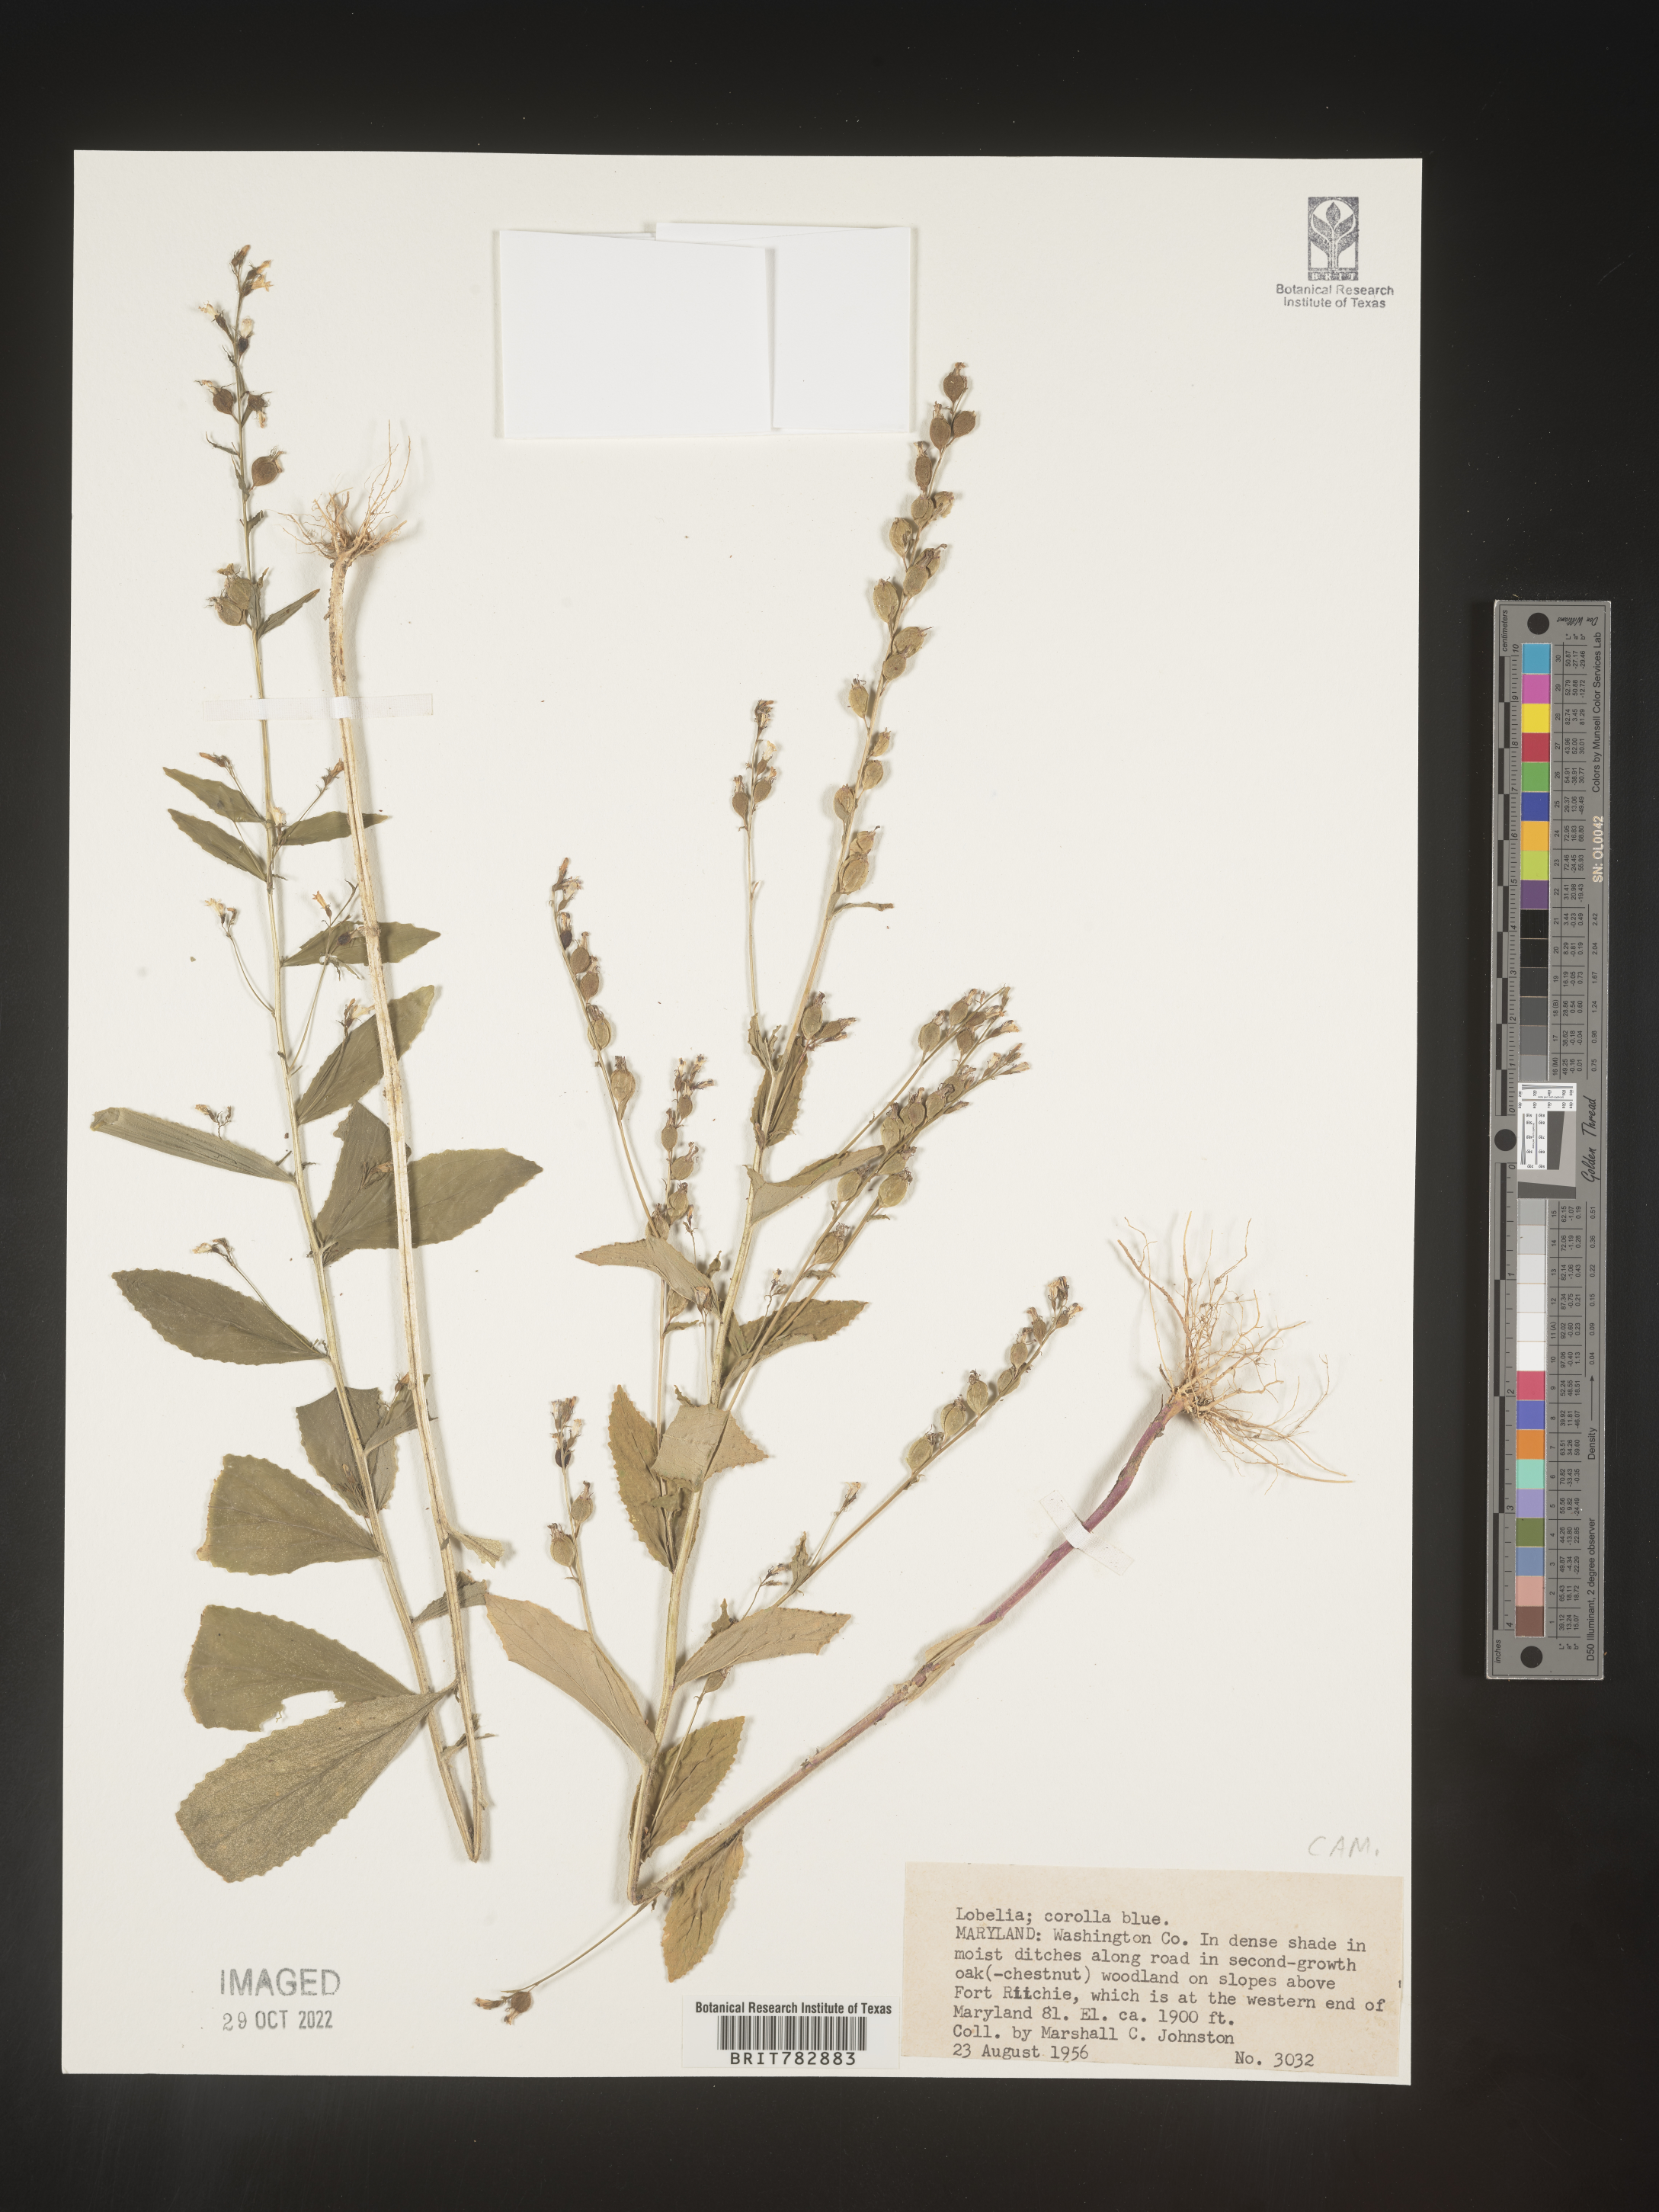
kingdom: Plantae
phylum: Tracheophyta
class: Magnoliopsida
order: Asterales
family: Campanulaceae
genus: Lobelia
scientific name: Lobelia
